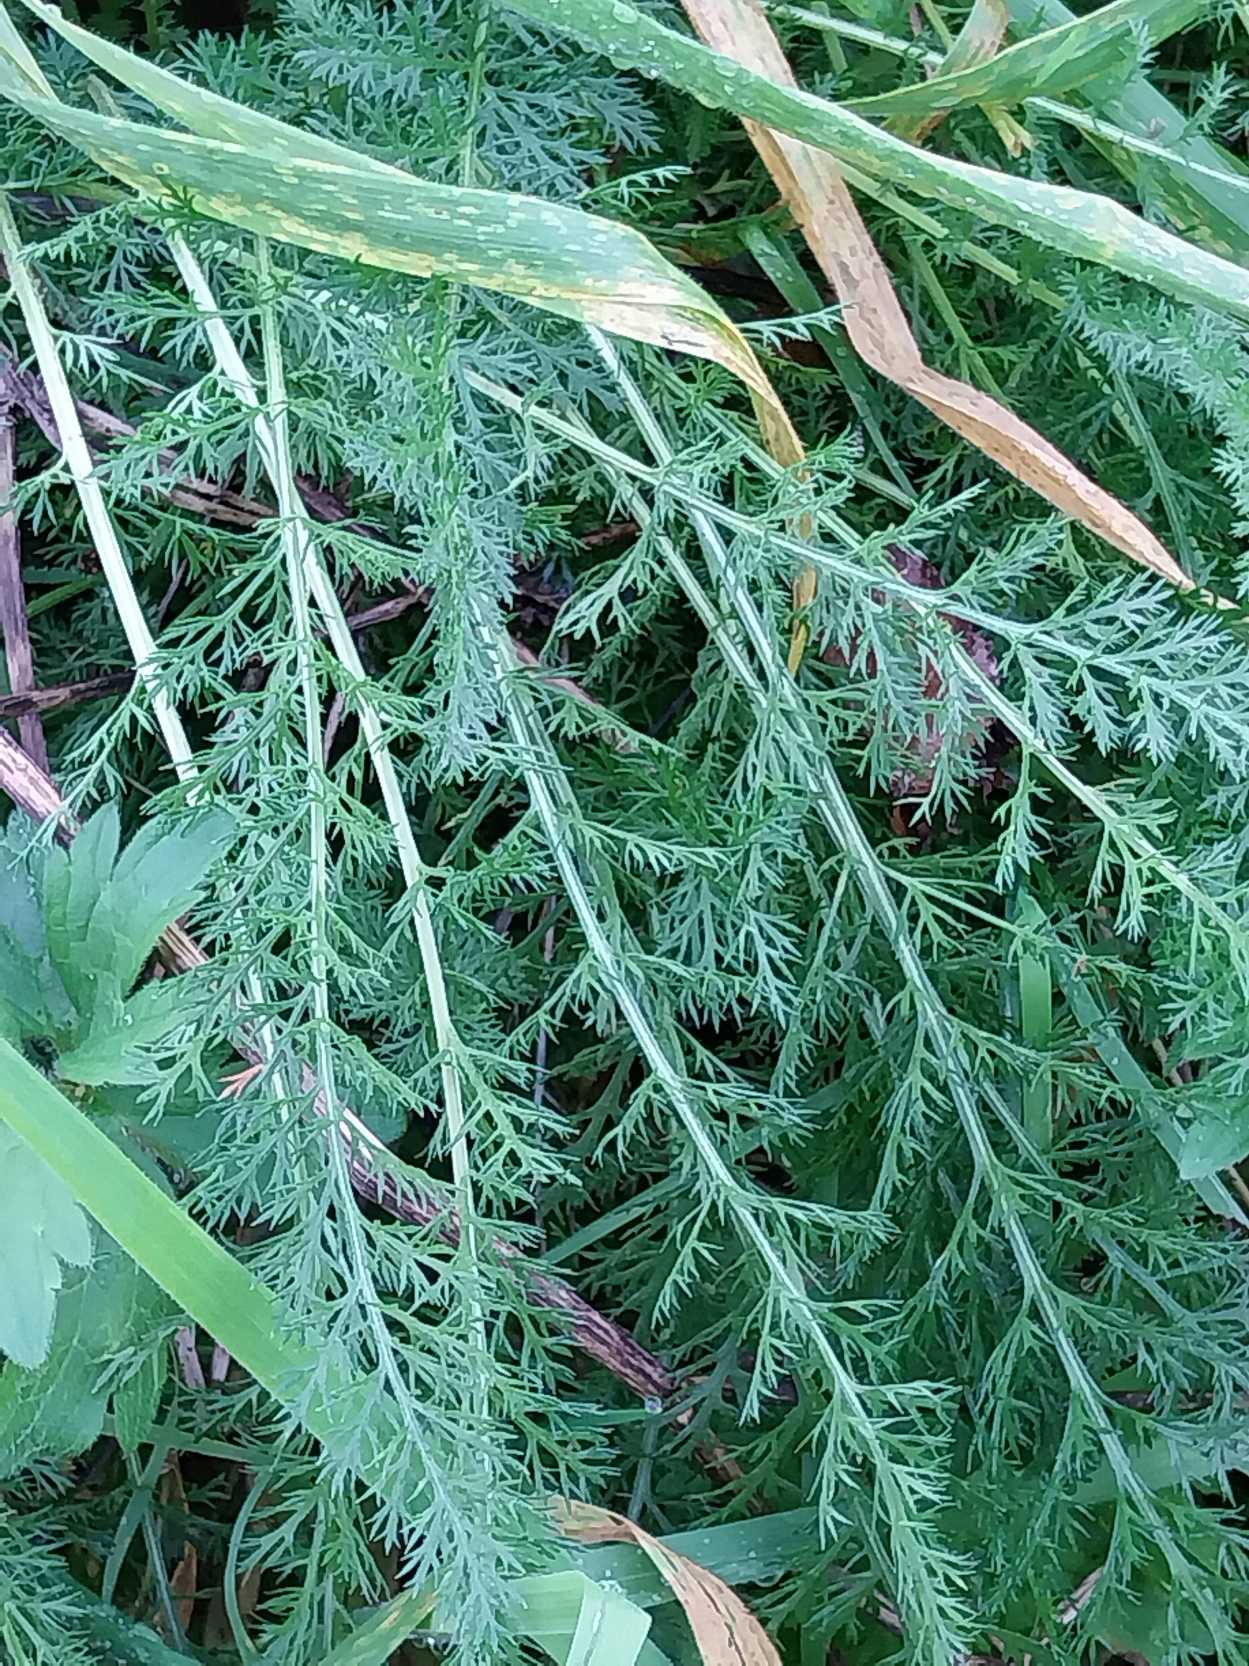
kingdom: Plantae
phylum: Tracheophyta
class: Magnoliopsida
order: Asterales
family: Asteraceae
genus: Achillea
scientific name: Achillea millefolium
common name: Almindelig røllike
